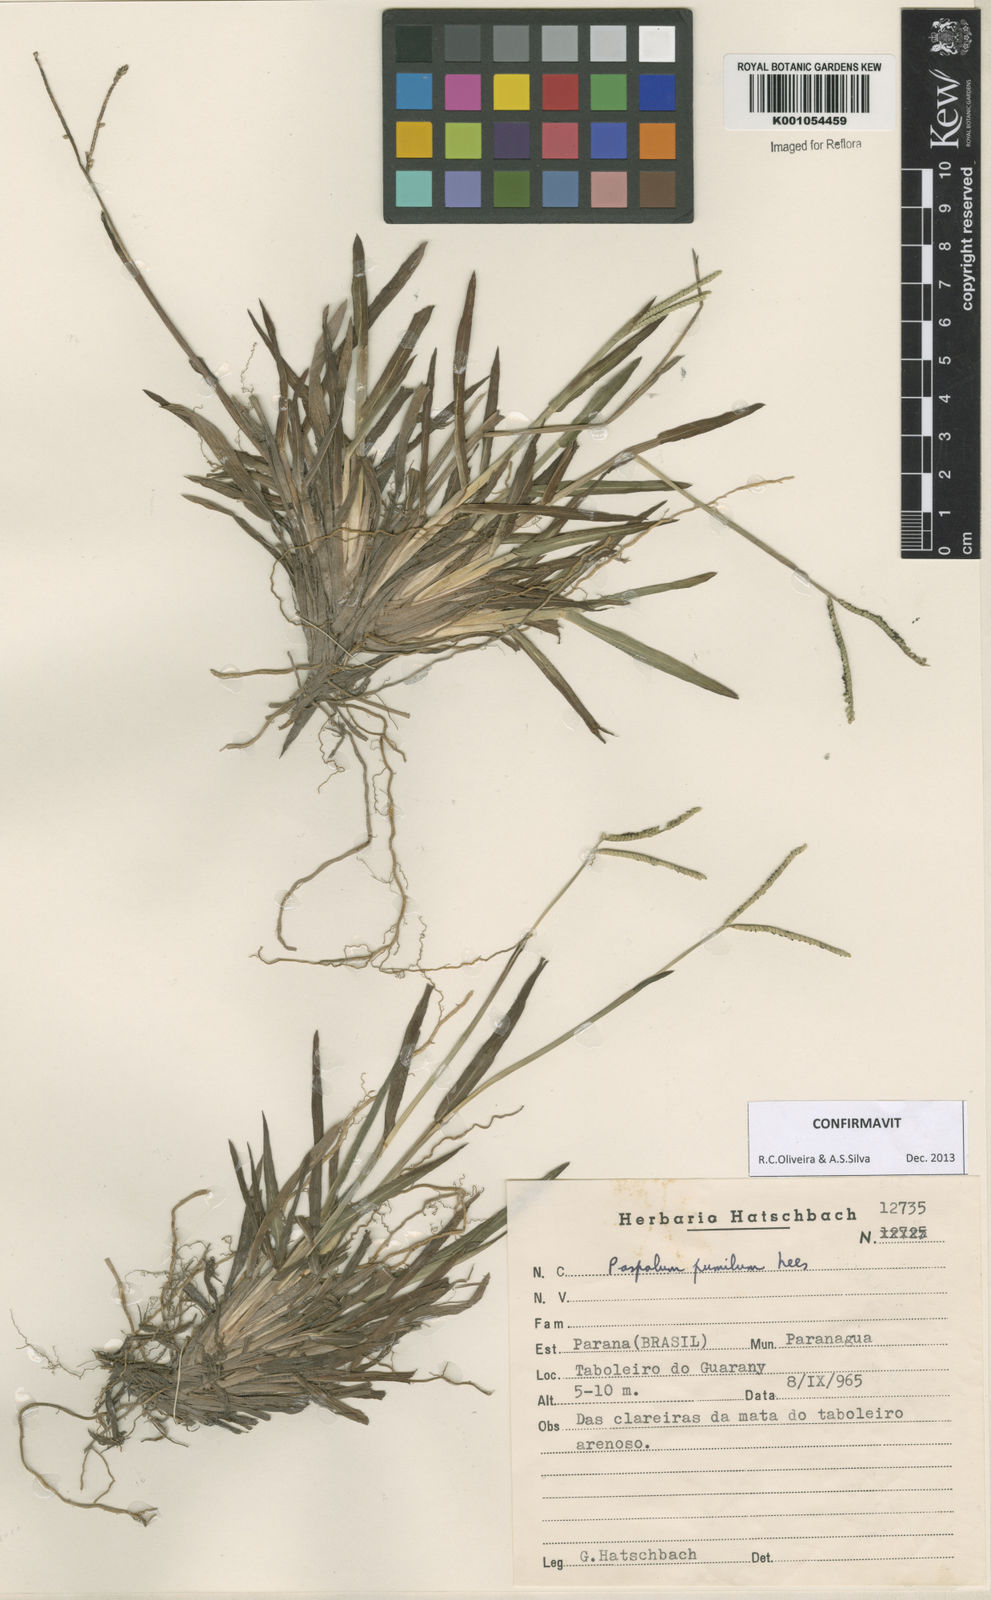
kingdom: Plantae
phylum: Tracheophyta
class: Liliopsida
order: Poales
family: Poaceae
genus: Paspalum
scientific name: Paspalum pumilum
